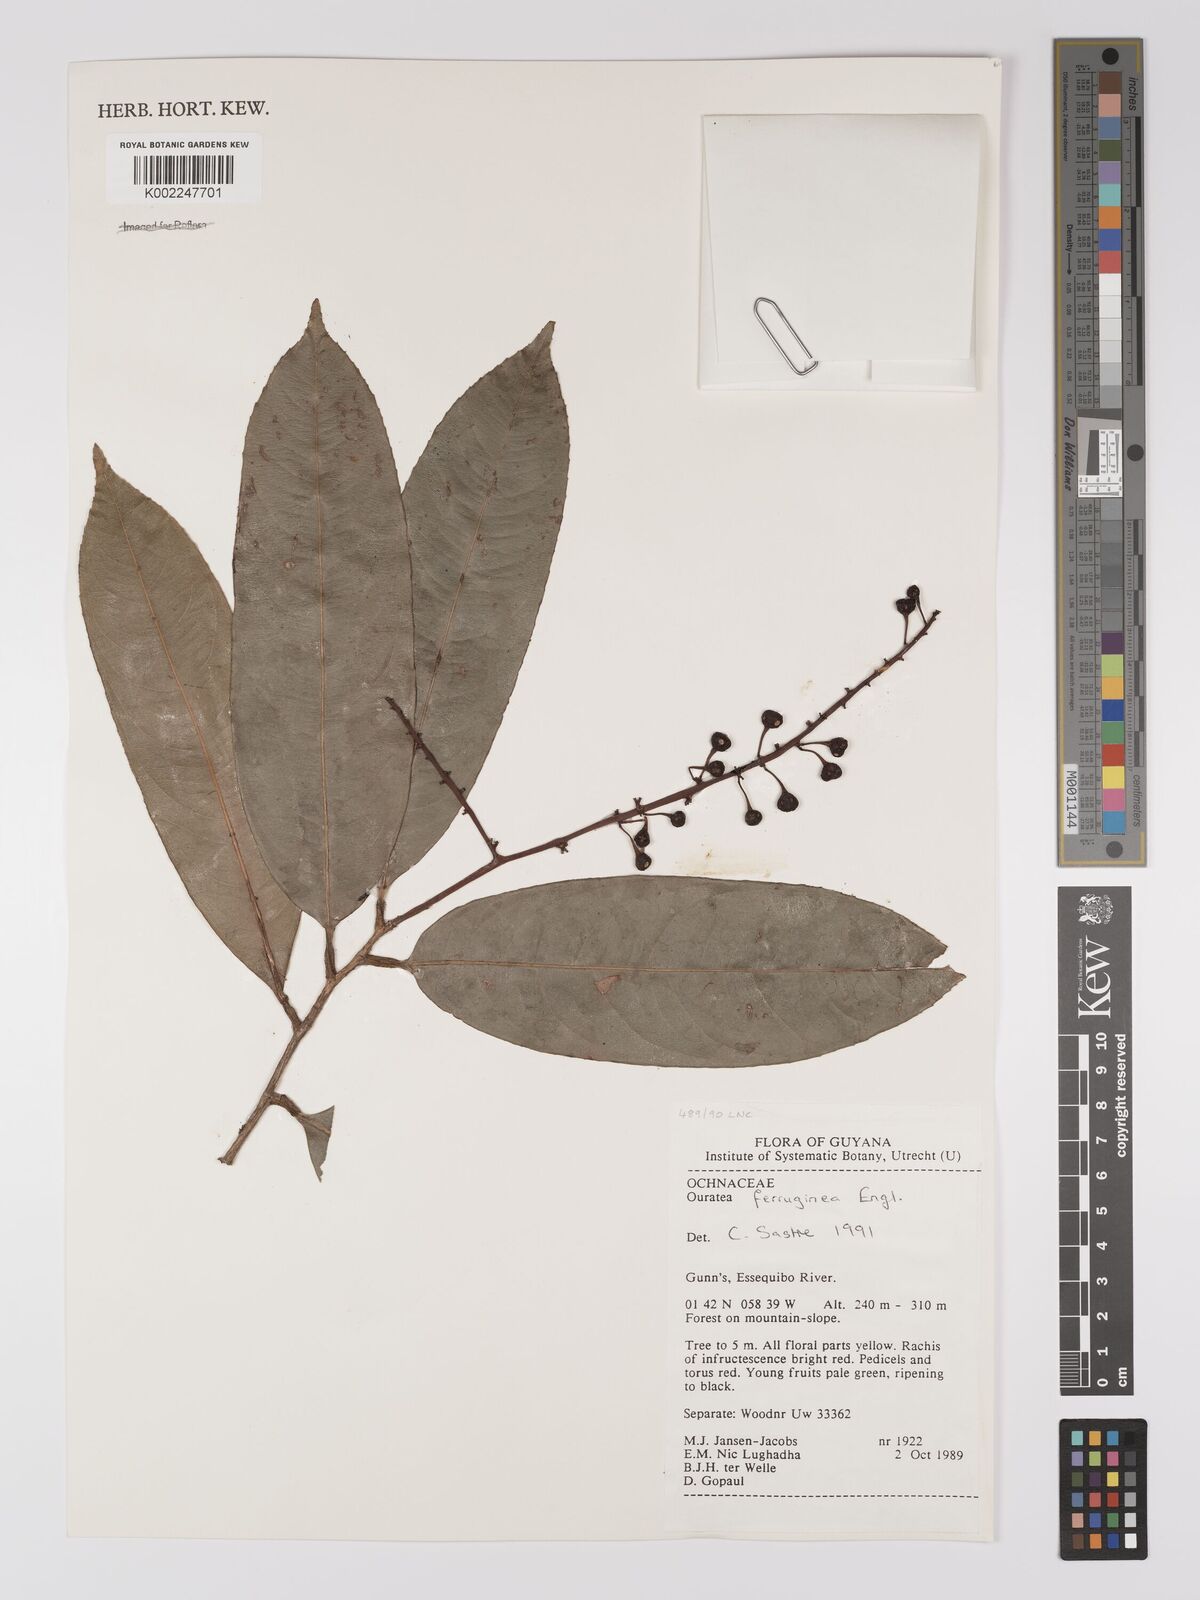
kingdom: Plantae
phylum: Tracheophyta
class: Magnoliopsida
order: Malpighiales
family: Ochnaceae
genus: Ouratea
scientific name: Ouratea ferruginea
